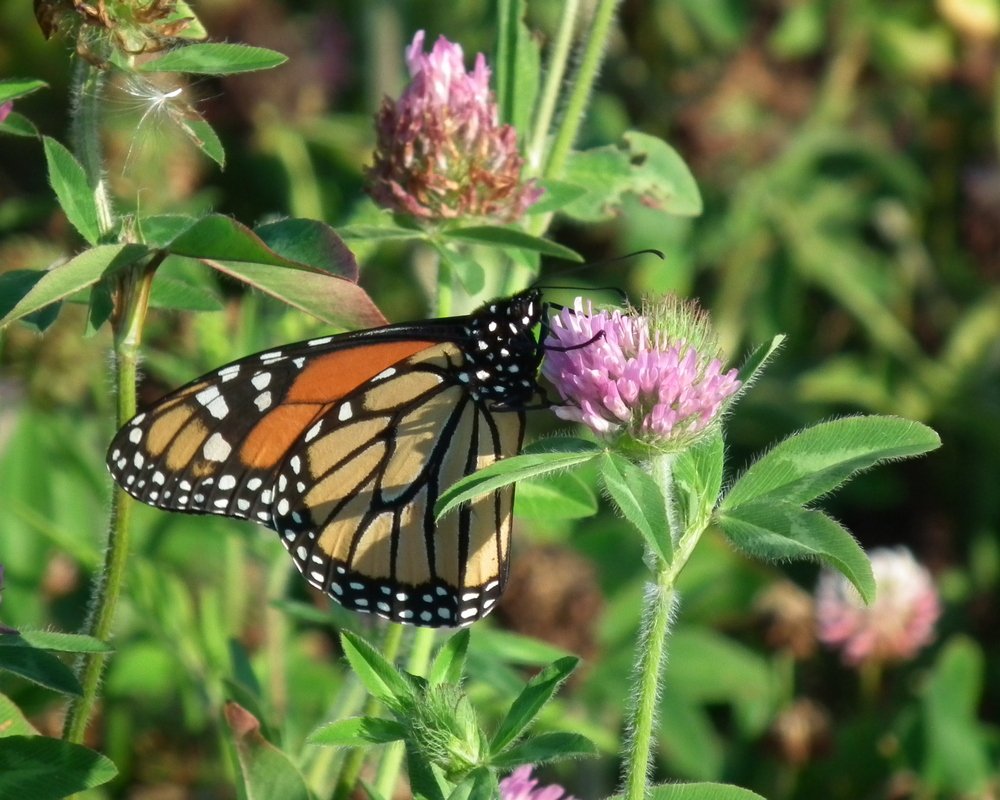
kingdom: Animalia
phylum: Arthropoda
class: Insecta
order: Lepidoptera
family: Nymphalidae
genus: Danaus
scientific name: Danaus plexippus
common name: Monarch
